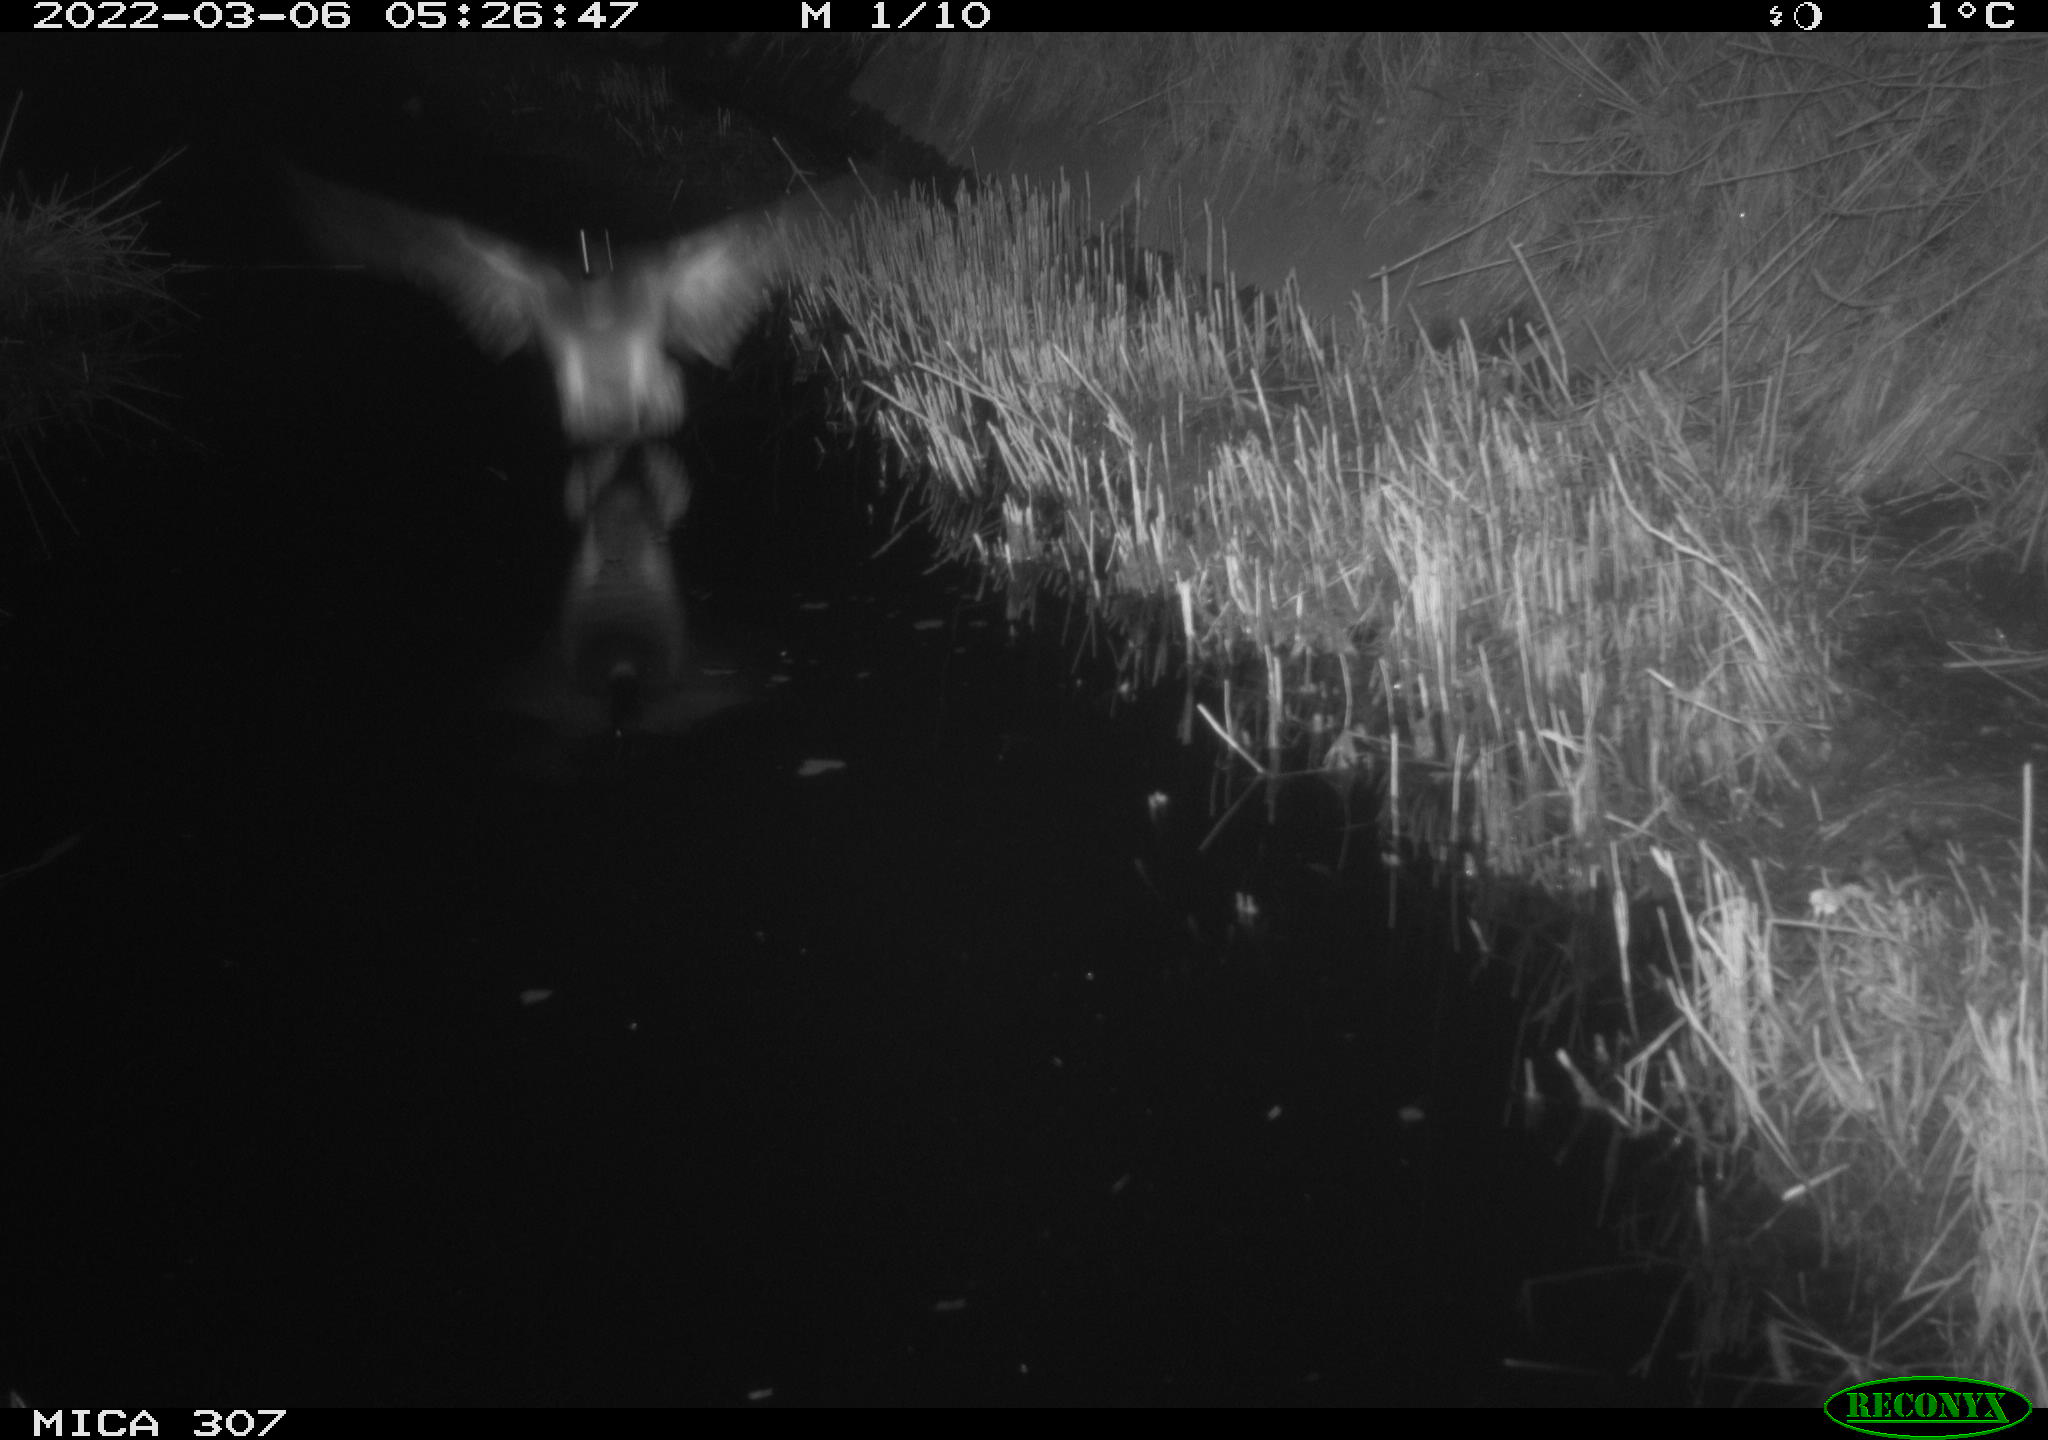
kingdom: Animalia
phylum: Chordata
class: Aves
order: Anseriformes
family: Anatidae
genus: Anas
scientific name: Anas platyrhynchos
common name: Mallard
